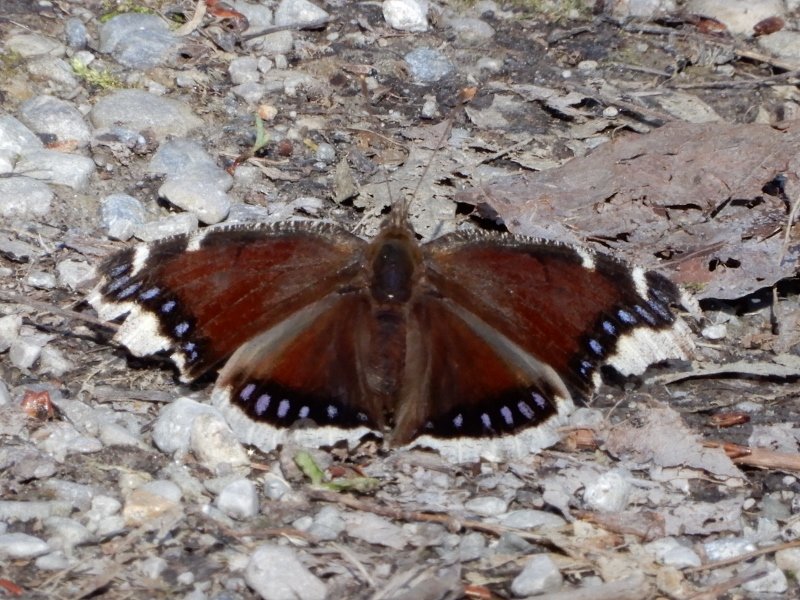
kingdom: Animalia
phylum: Arthropoda
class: Insecta
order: Lepidoptera
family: Nymphalidae
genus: Nymphalis
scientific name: Nymphalis antiopa
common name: Mourning Cloak
